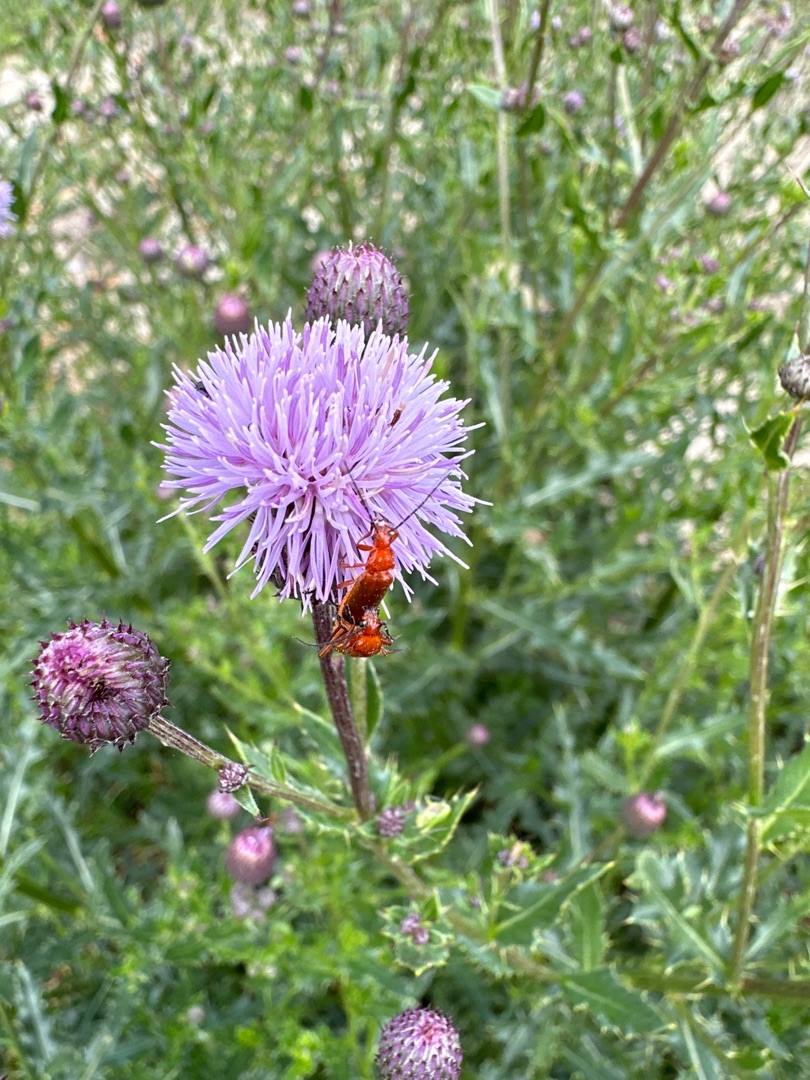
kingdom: Animalia
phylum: Arthropoda
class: Insecta
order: Coleoptera
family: Cantharidae
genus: Rhagonycha
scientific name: Rhagonycha fulva
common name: Præstebille
